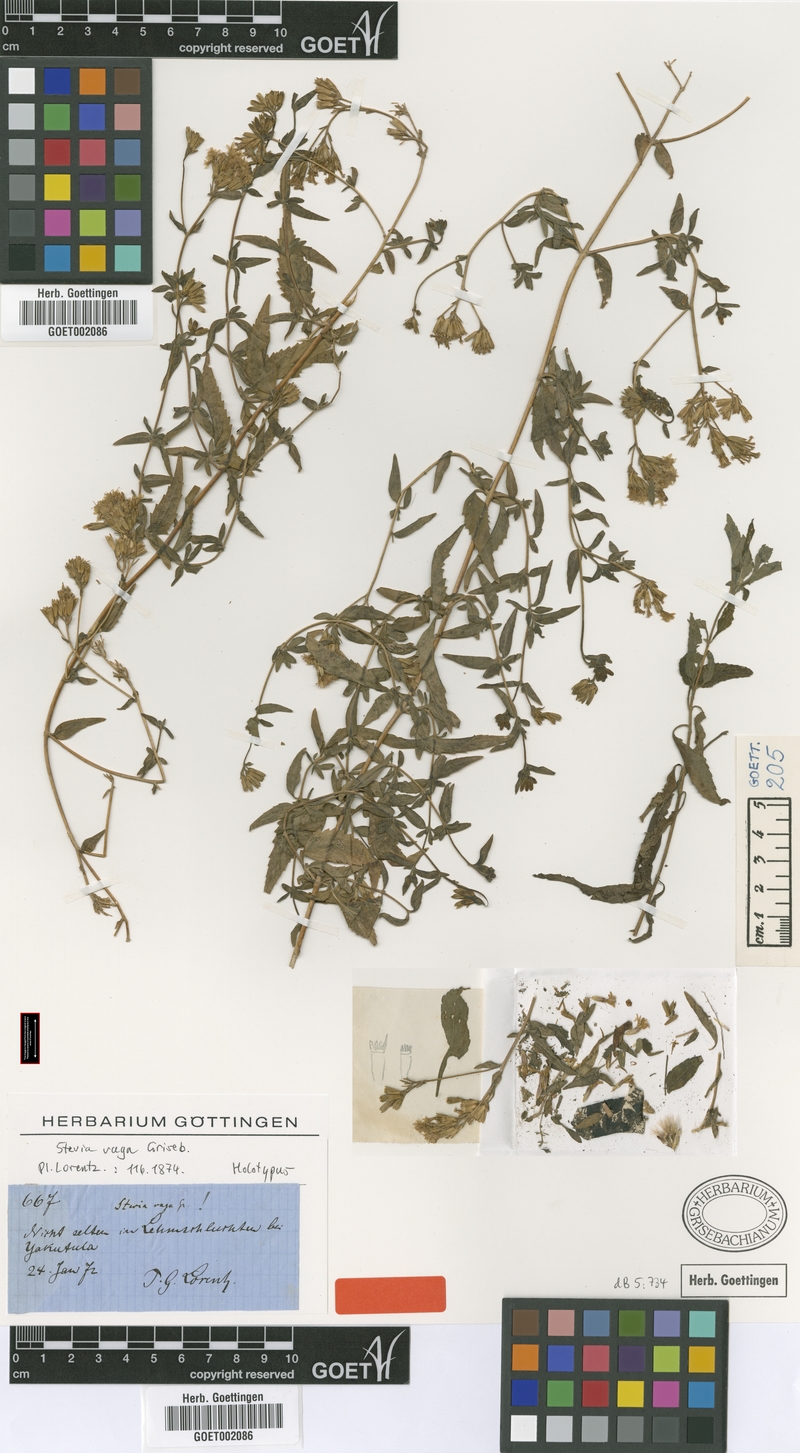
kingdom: Plantae
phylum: Tracheophyta
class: Magnoliopsida
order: Asterales
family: Asteraceae
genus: Stevia
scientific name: Stevia vaga
